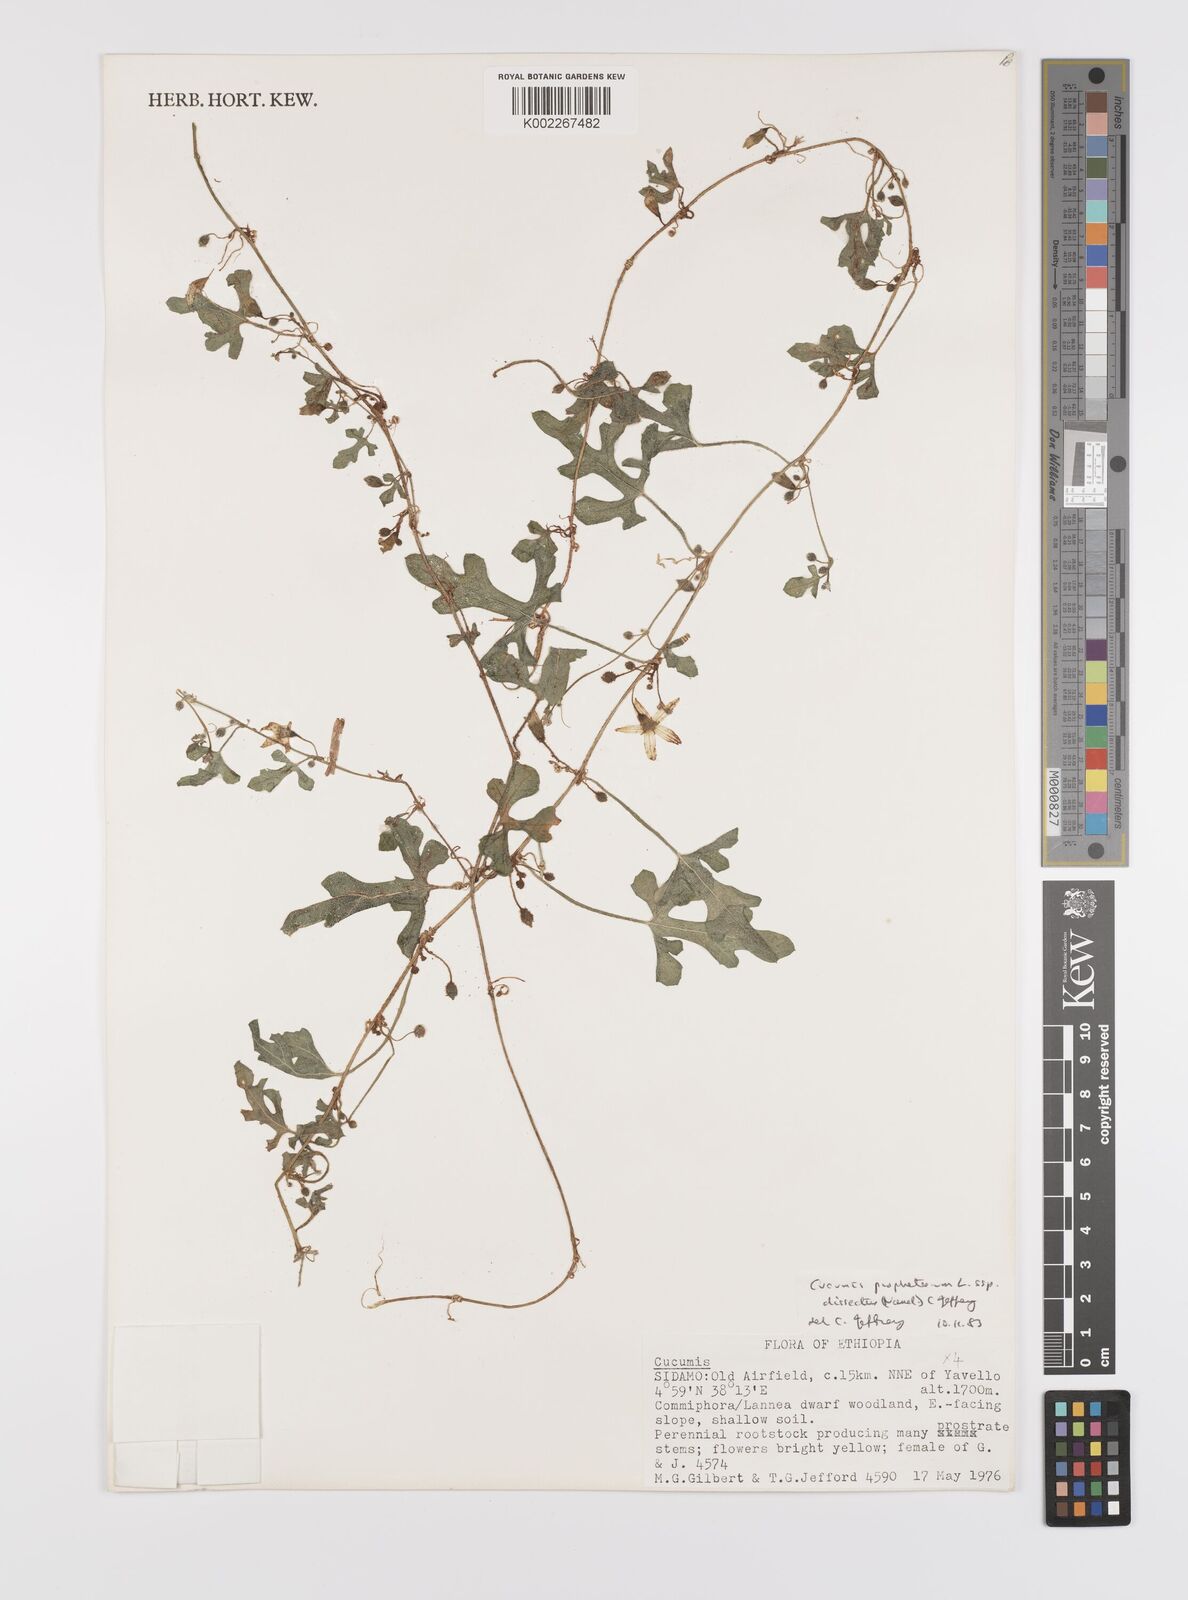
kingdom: Plantae
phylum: Tracheophyta
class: Magnoliopsida
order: Cucurbitales
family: Cucurbitaceae
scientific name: Cucurbitaceae
